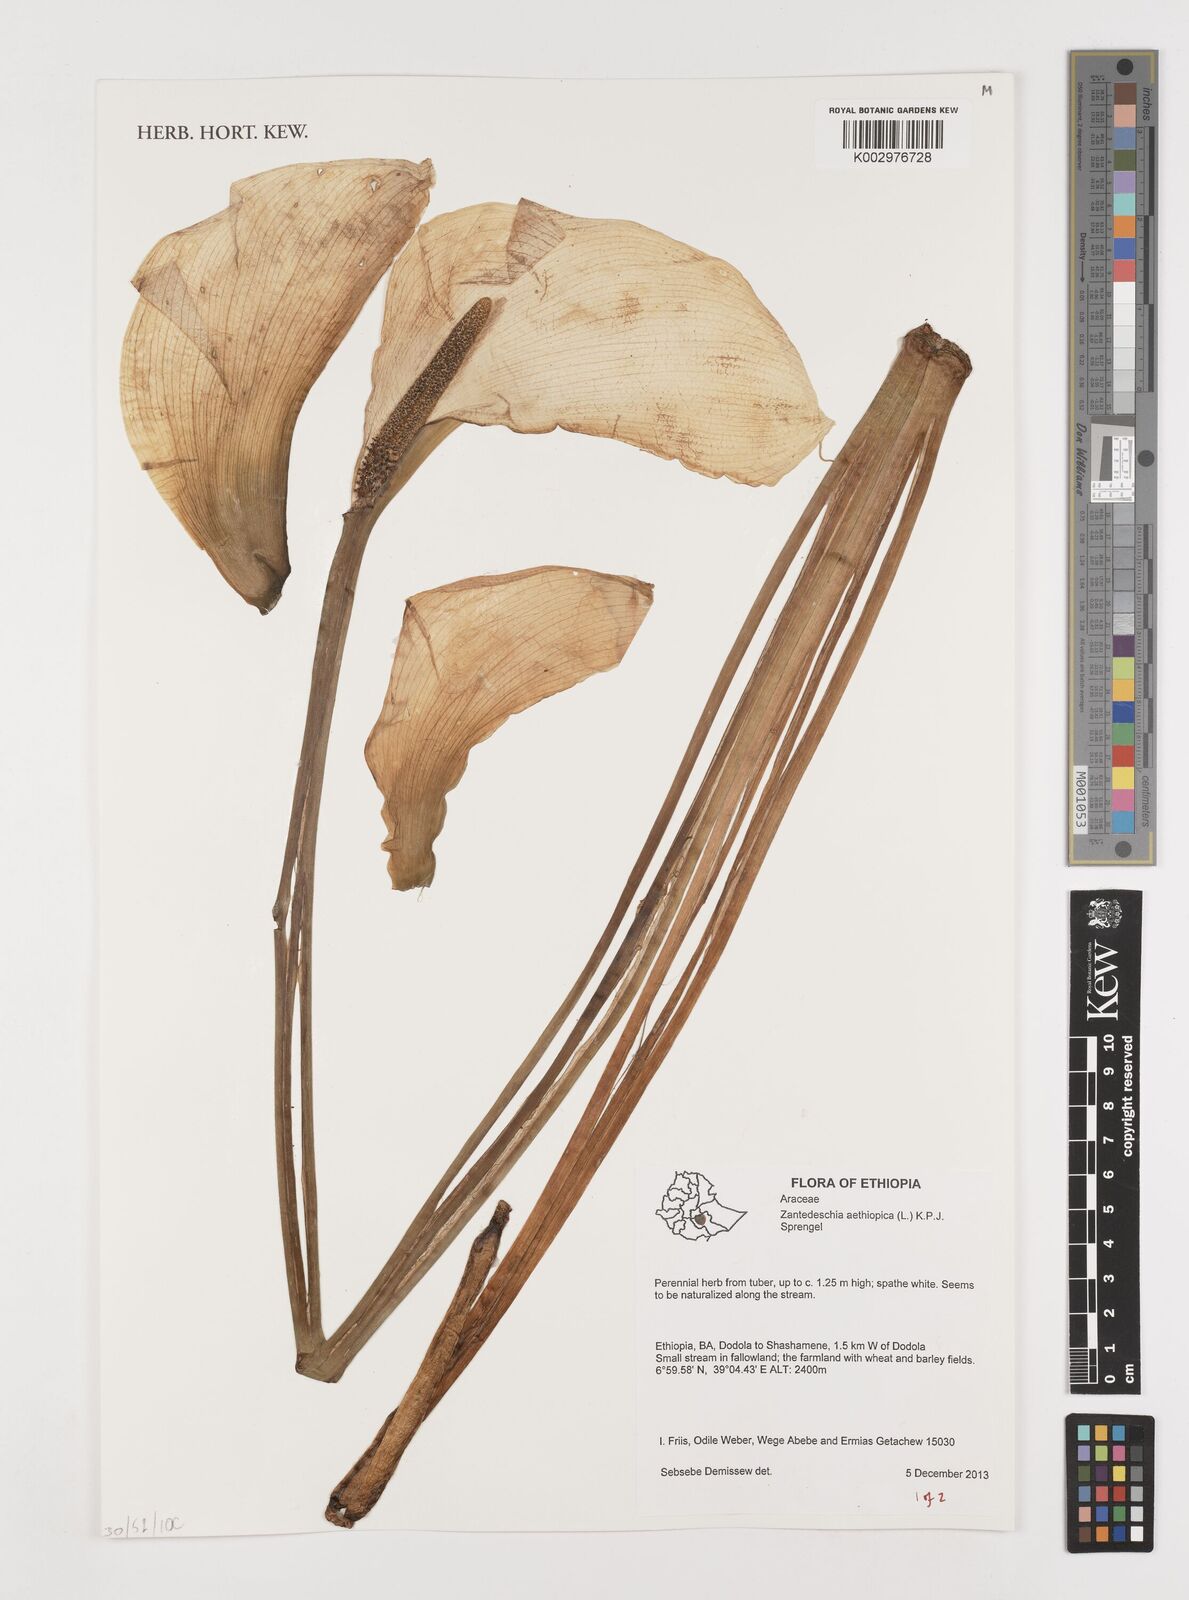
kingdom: Plantae
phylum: Tracheophyta
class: Liliopsida
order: Alismatales
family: Araceae
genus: Zantedeschia
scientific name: Zantedeschia aethiopica
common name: Altar-lily
